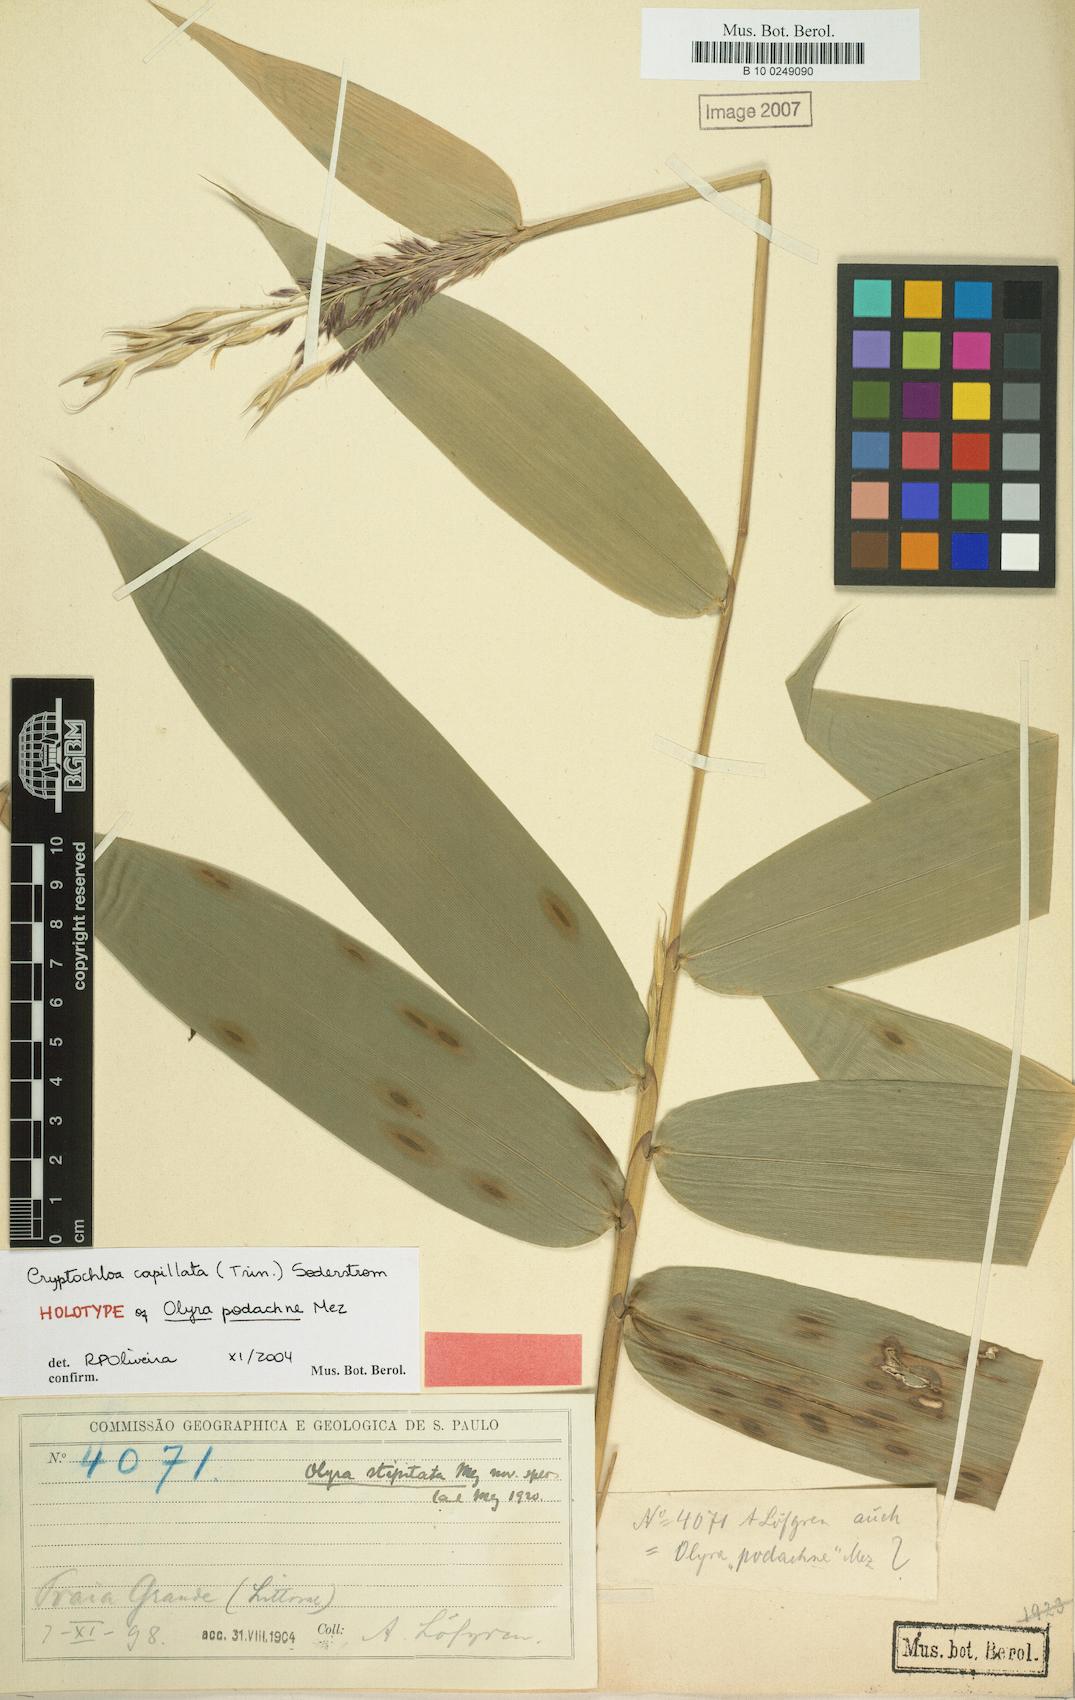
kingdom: Plantae
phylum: Tracheophyta
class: Liliopsida
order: Poales
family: Poaceae
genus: Cryptochloa
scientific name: Cryptochloa capillata
